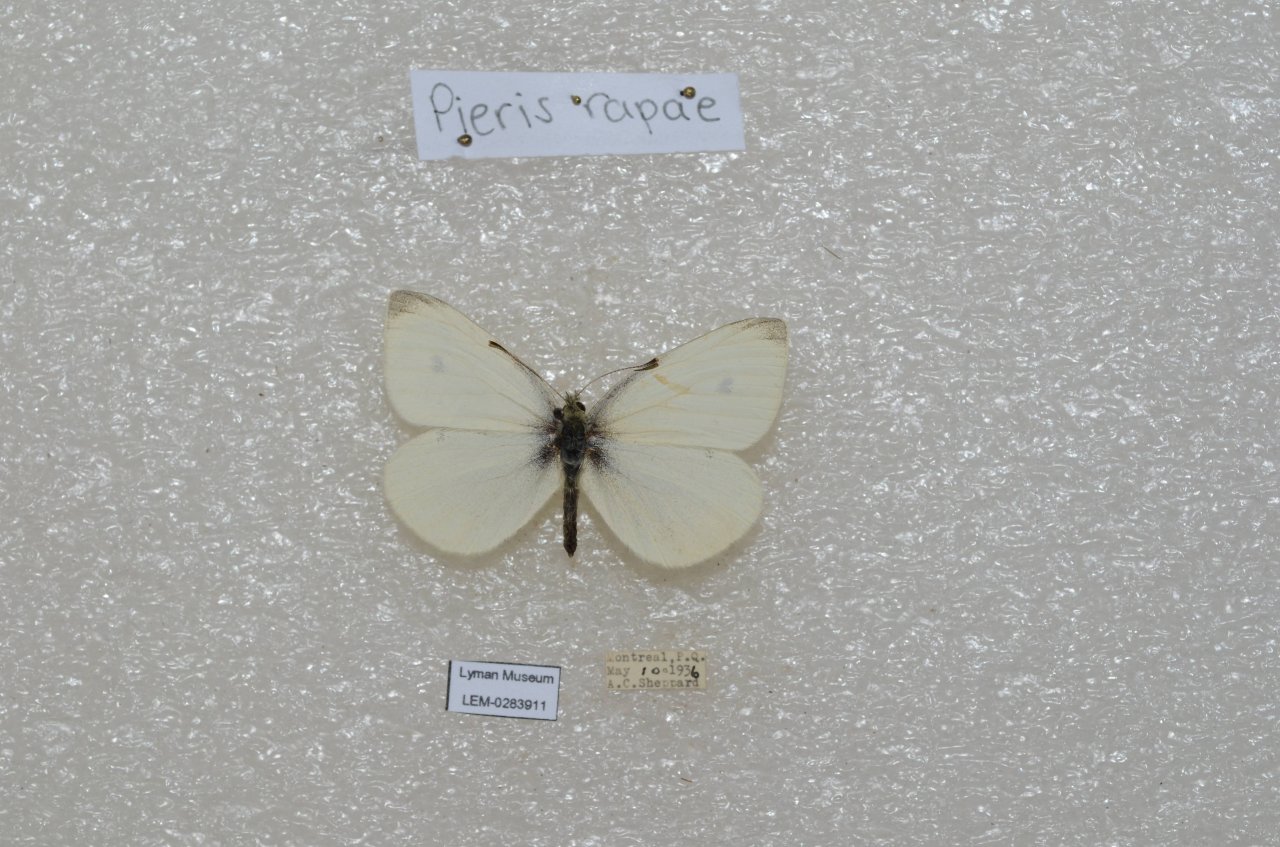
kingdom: Animalia
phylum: Arthropoda
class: Insecta
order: Lepidoptera
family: Pieridae
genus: Pieris
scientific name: Pieris rapae
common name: Cabbage White
